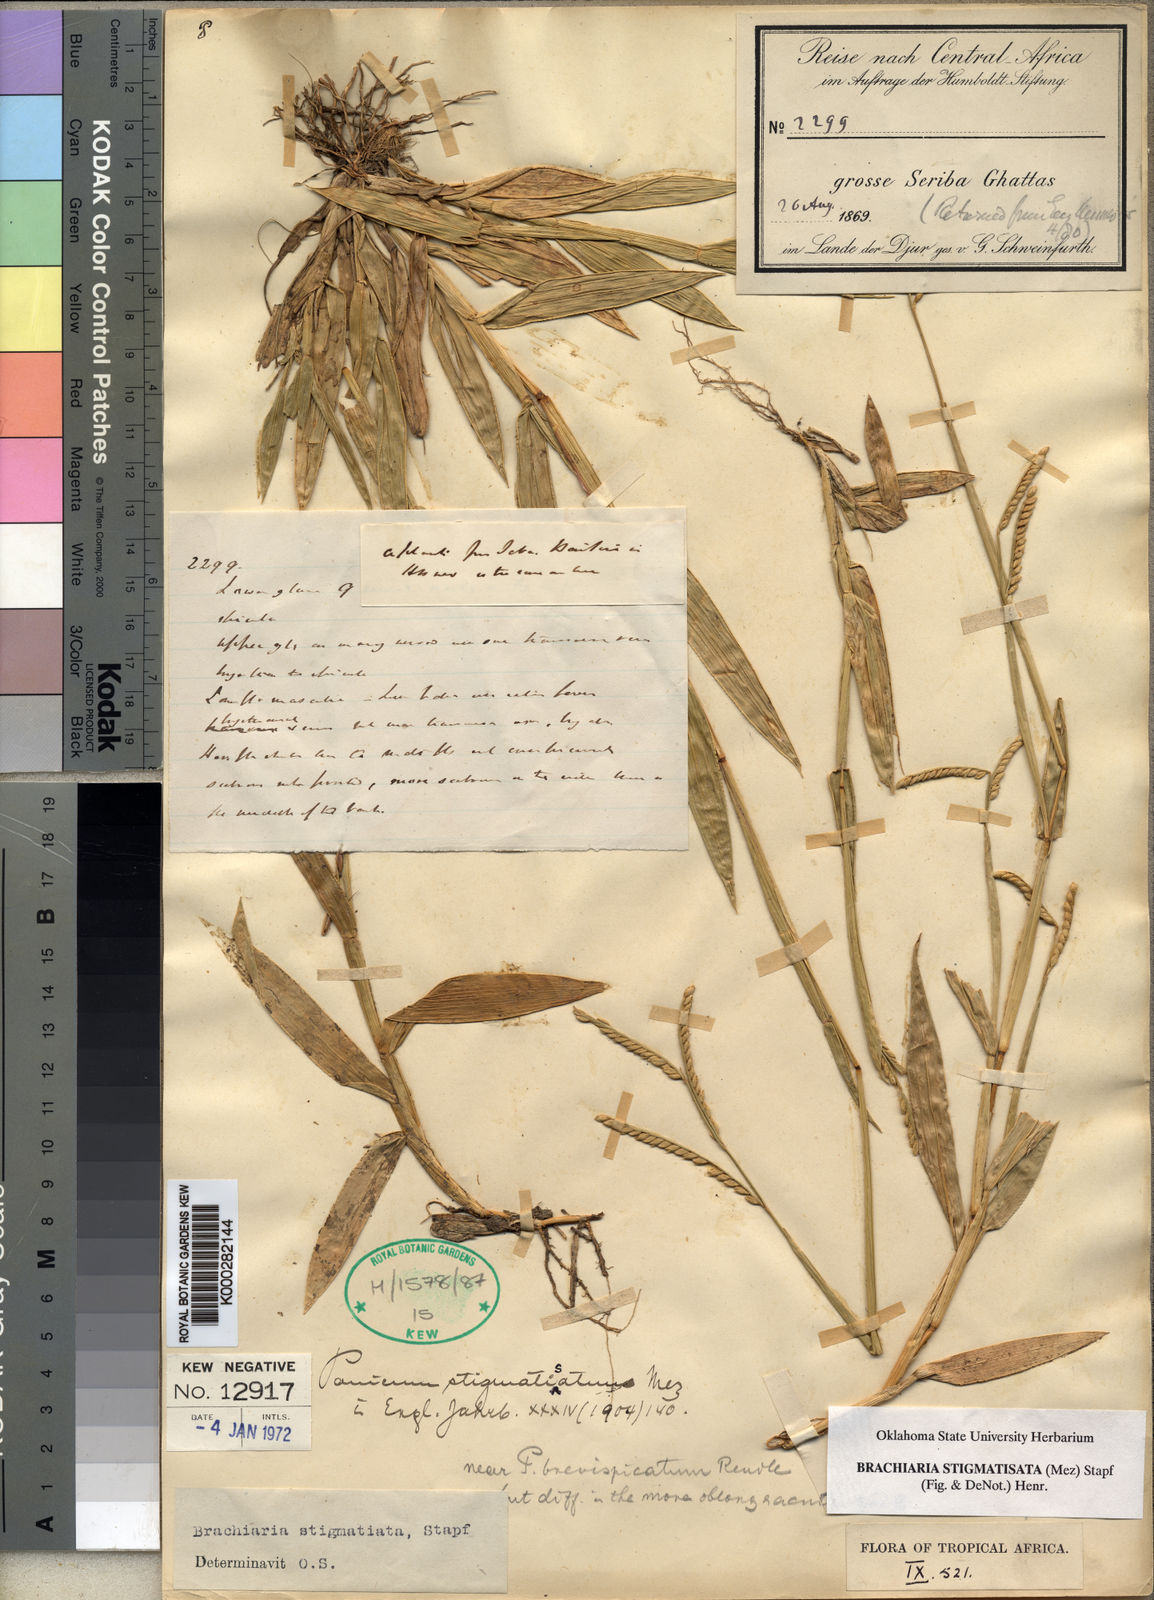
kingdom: Plantae
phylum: Tracheophyta
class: Liliopsida
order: Poales
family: Poaceae
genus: Urochloa
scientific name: Urochloa stigmatisata
